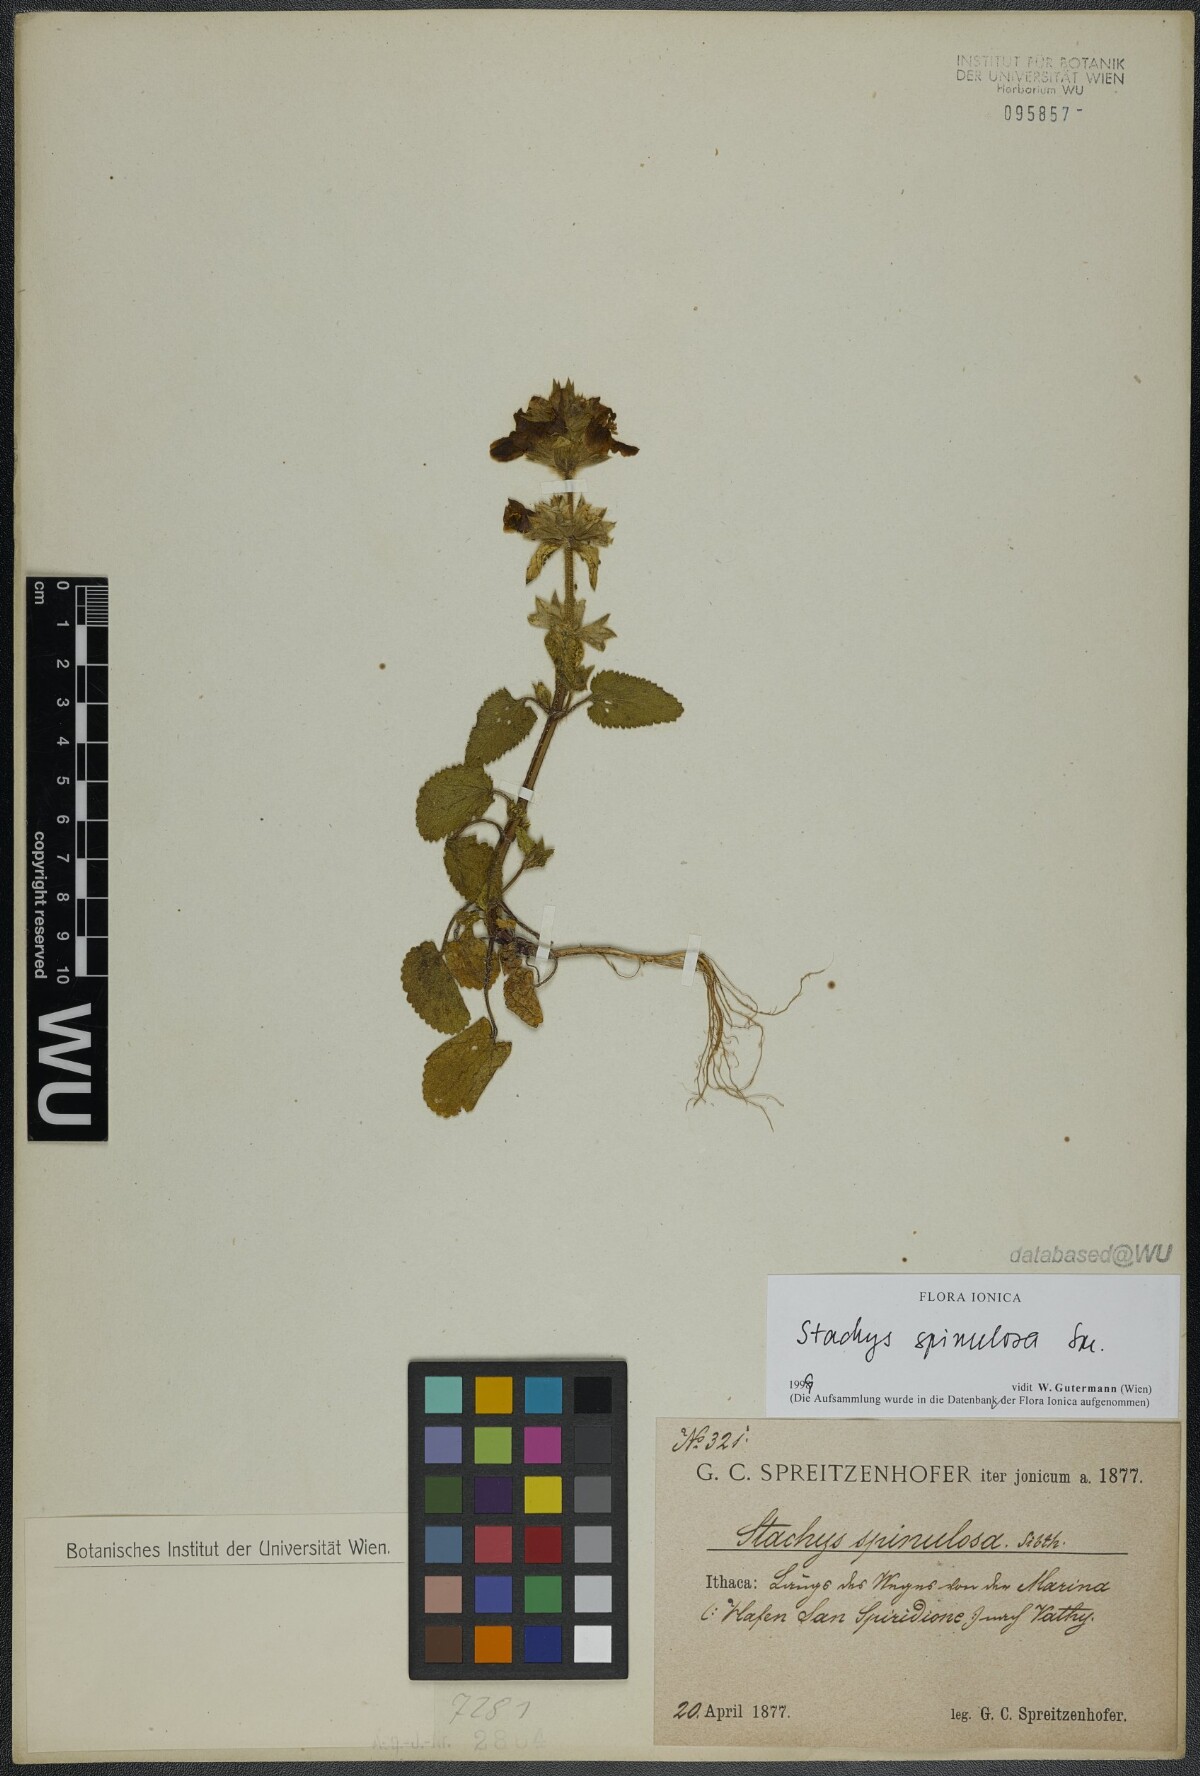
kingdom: Plantae
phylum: Tracheophyta
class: Magnoliopsida
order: Lamiales
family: Lamiaceae
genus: Stachys
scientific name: Stachys spinulosa
